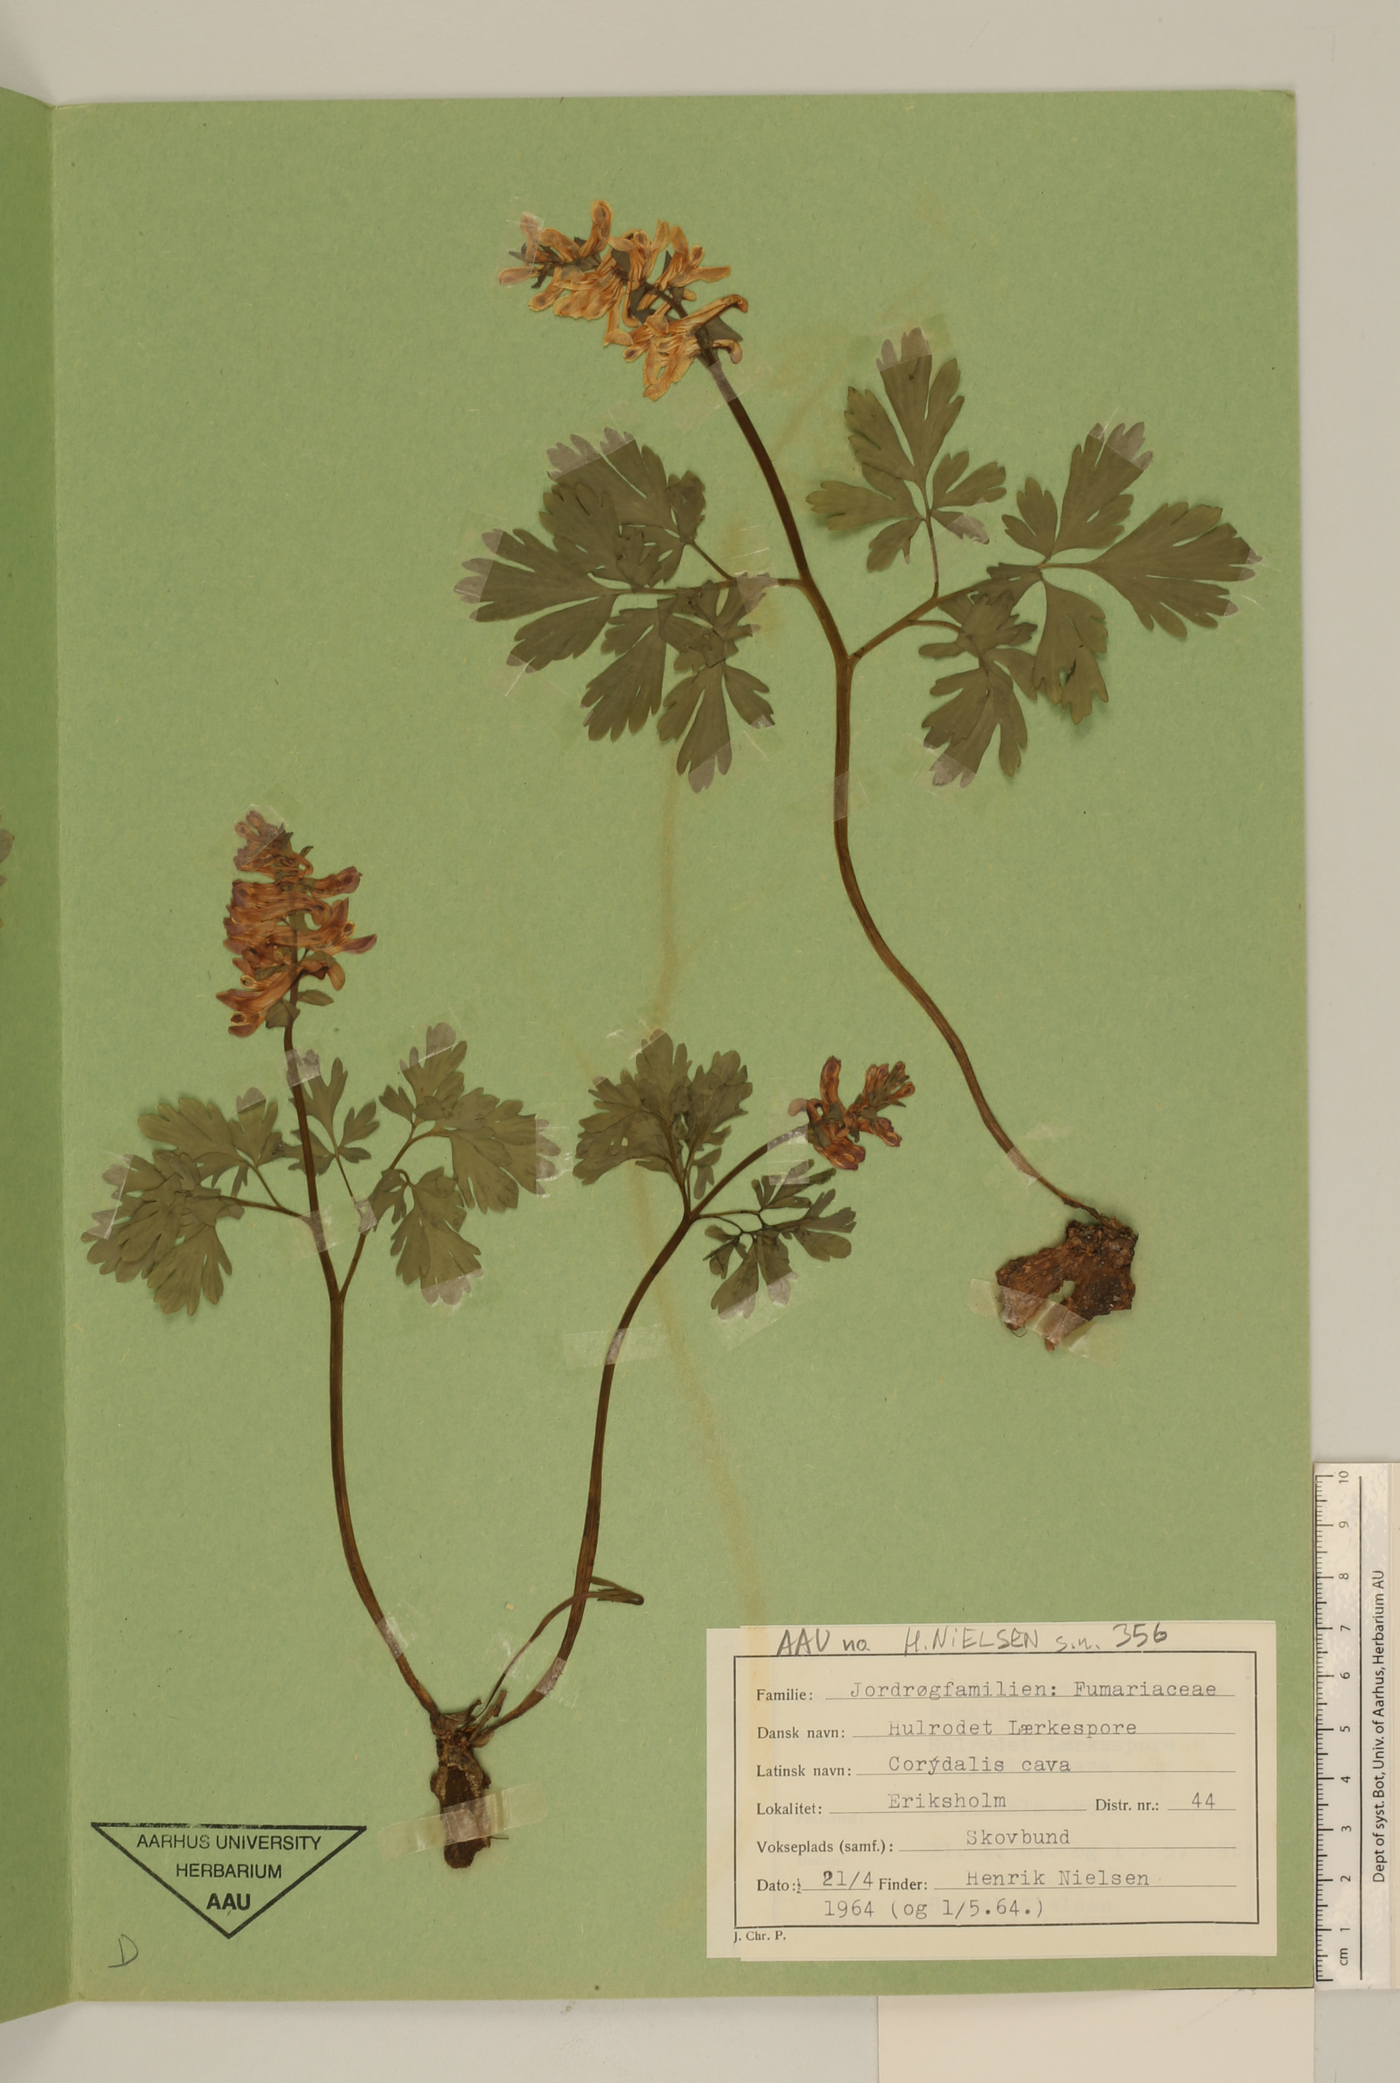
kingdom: Plantae
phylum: Tracheophyta
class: Magnoliopsida
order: Ranunculales
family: Papaveraceae
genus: Corydalis
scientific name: Corydalis cava
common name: Hollowroot
